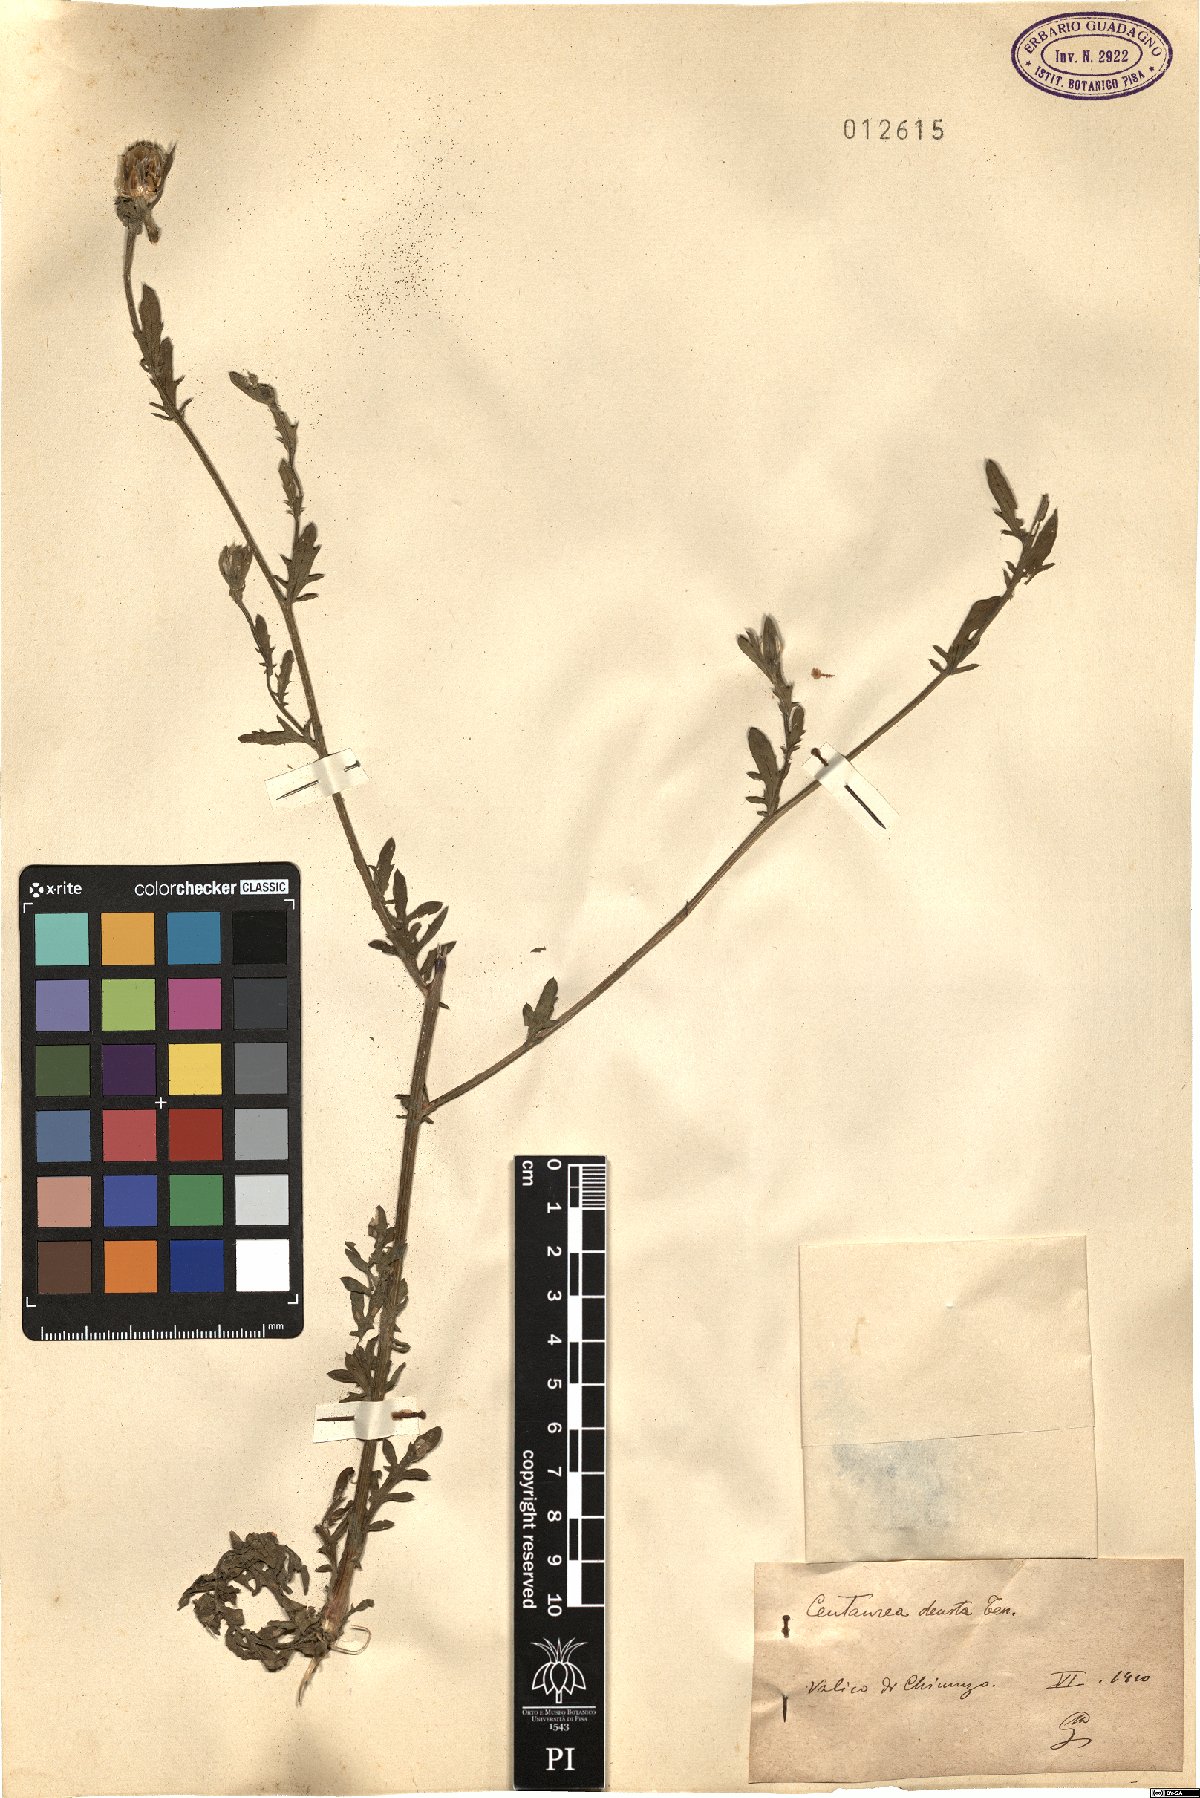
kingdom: Plantae
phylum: Tracheophyta
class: Magnoliopsida
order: Asterales
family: Asteraceae
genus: Centaurea
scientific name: Centaurea deusta
